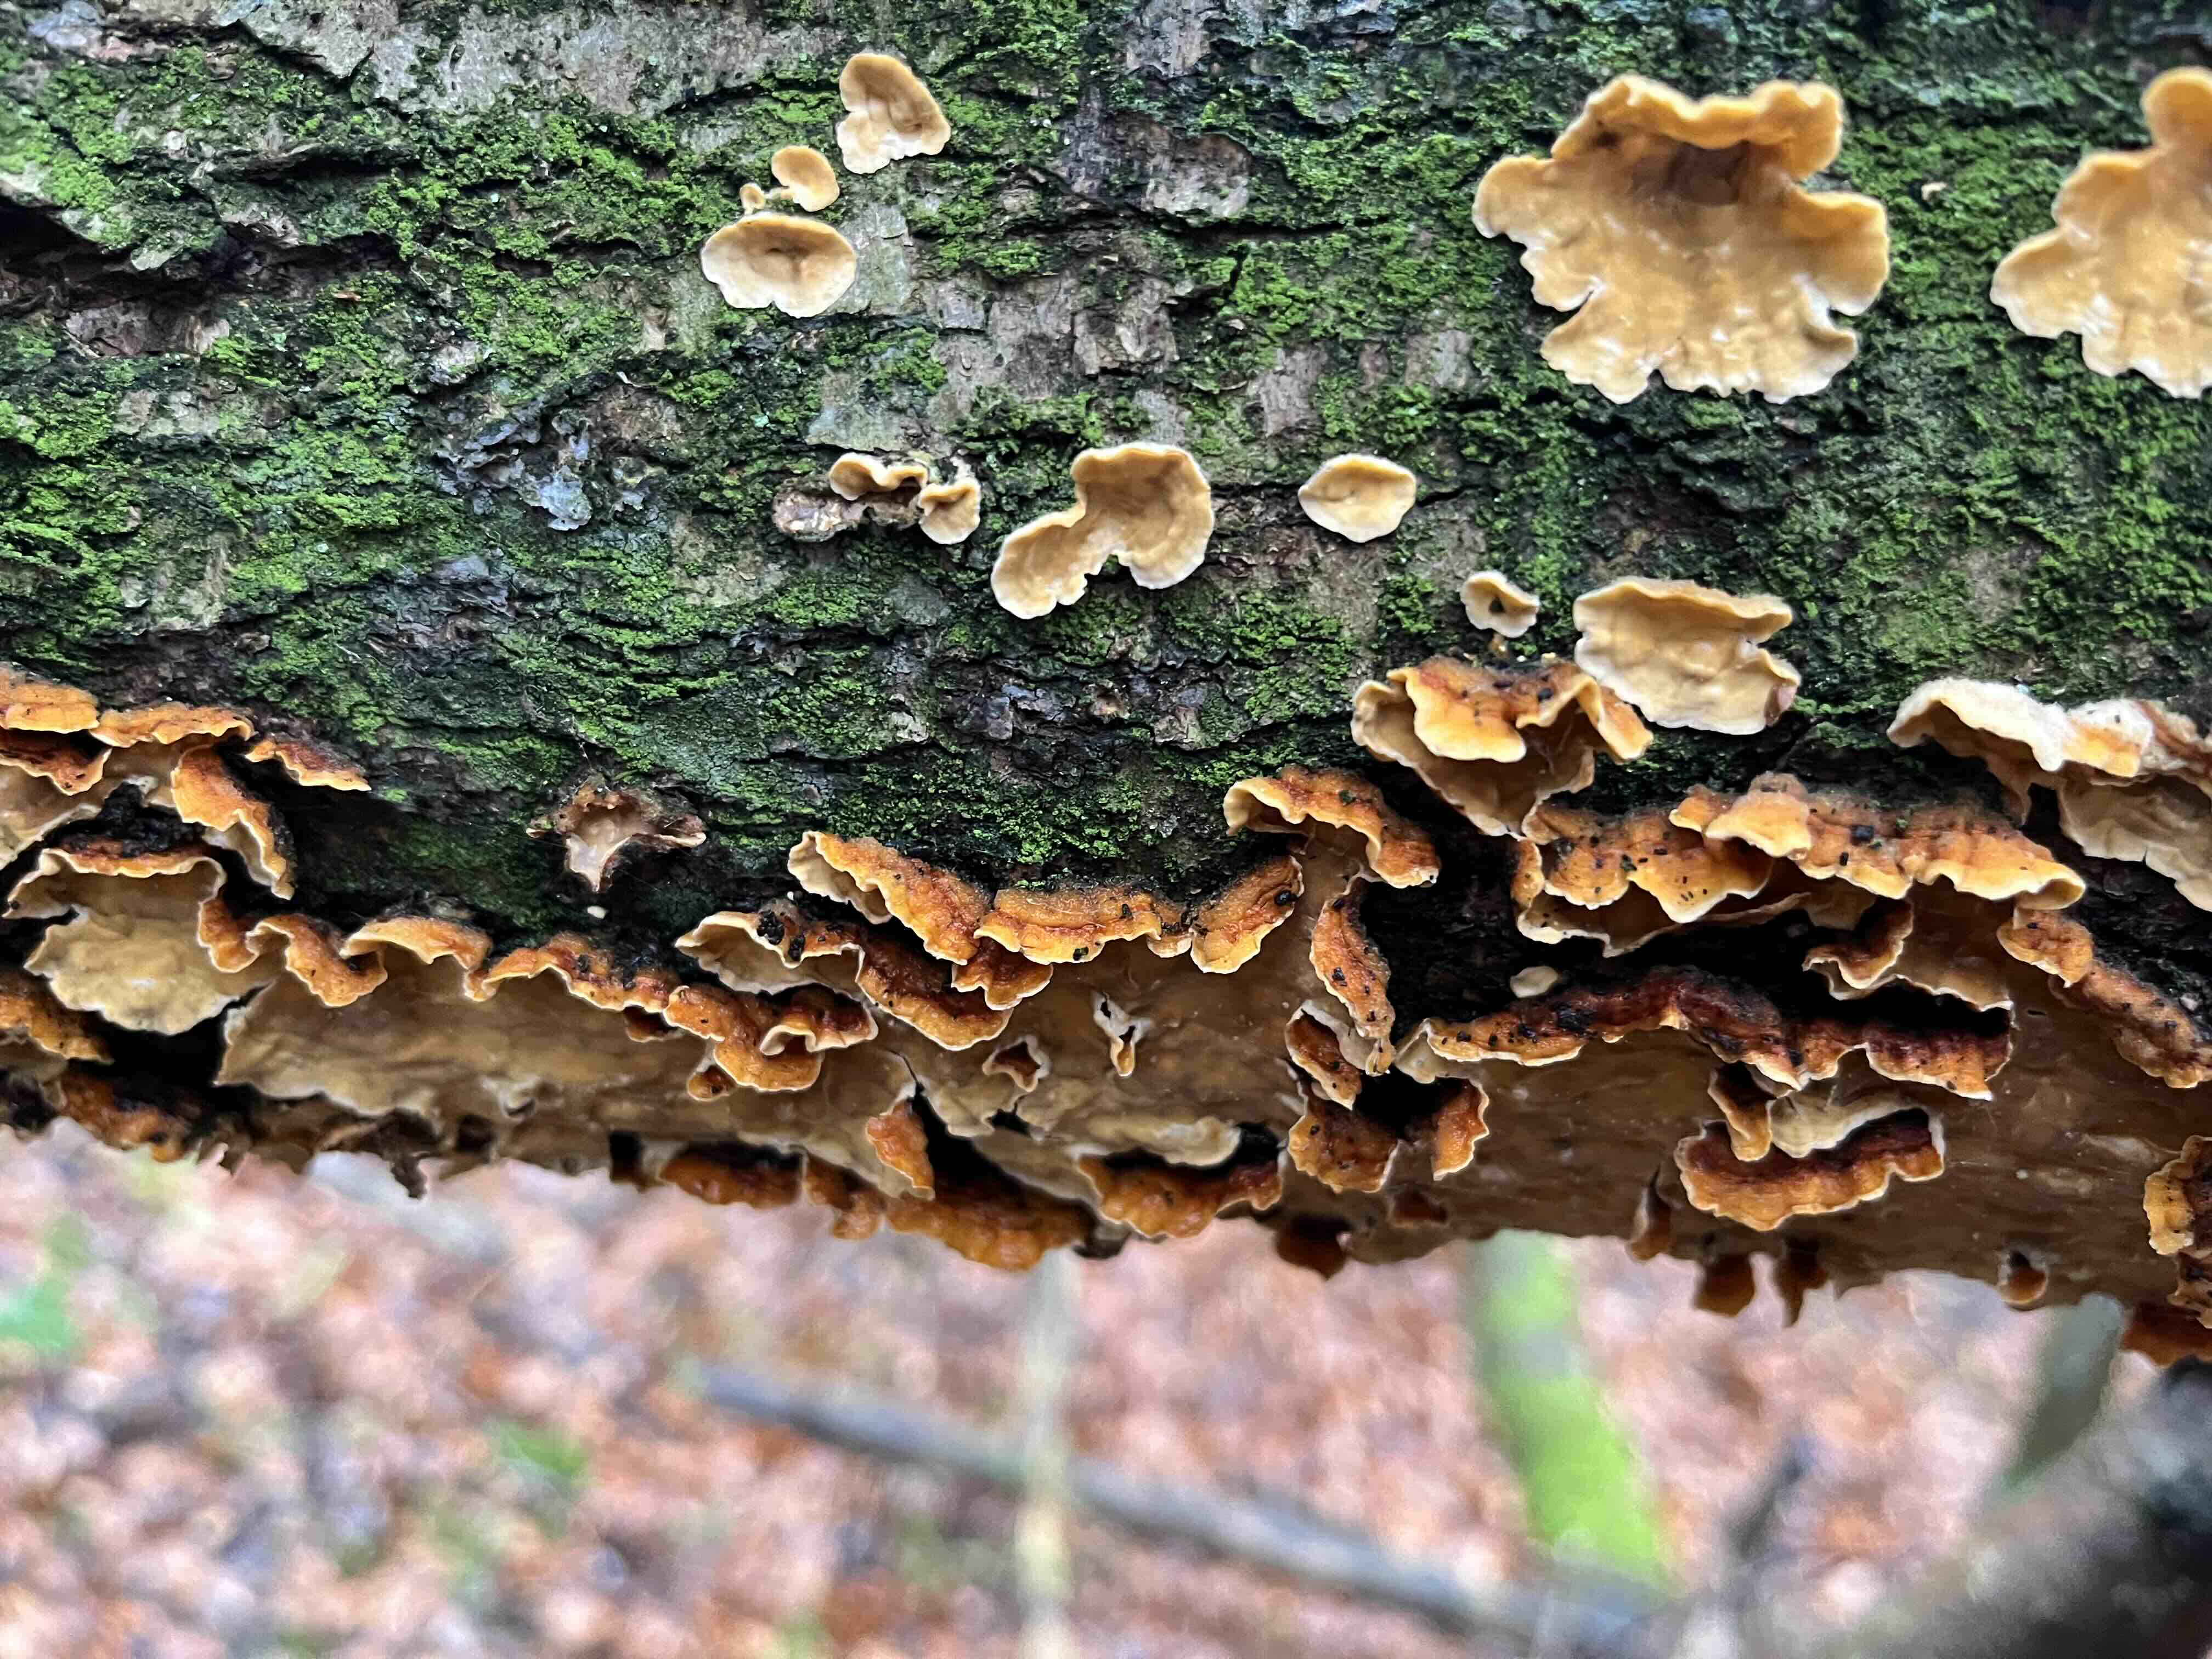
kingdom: Fungi
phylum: Basidiomycota
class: Agaricomycetes
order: Russulales
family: Stereaceae
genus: Stereum
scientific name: Stereum hirsutum
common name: håret lædersvamp
